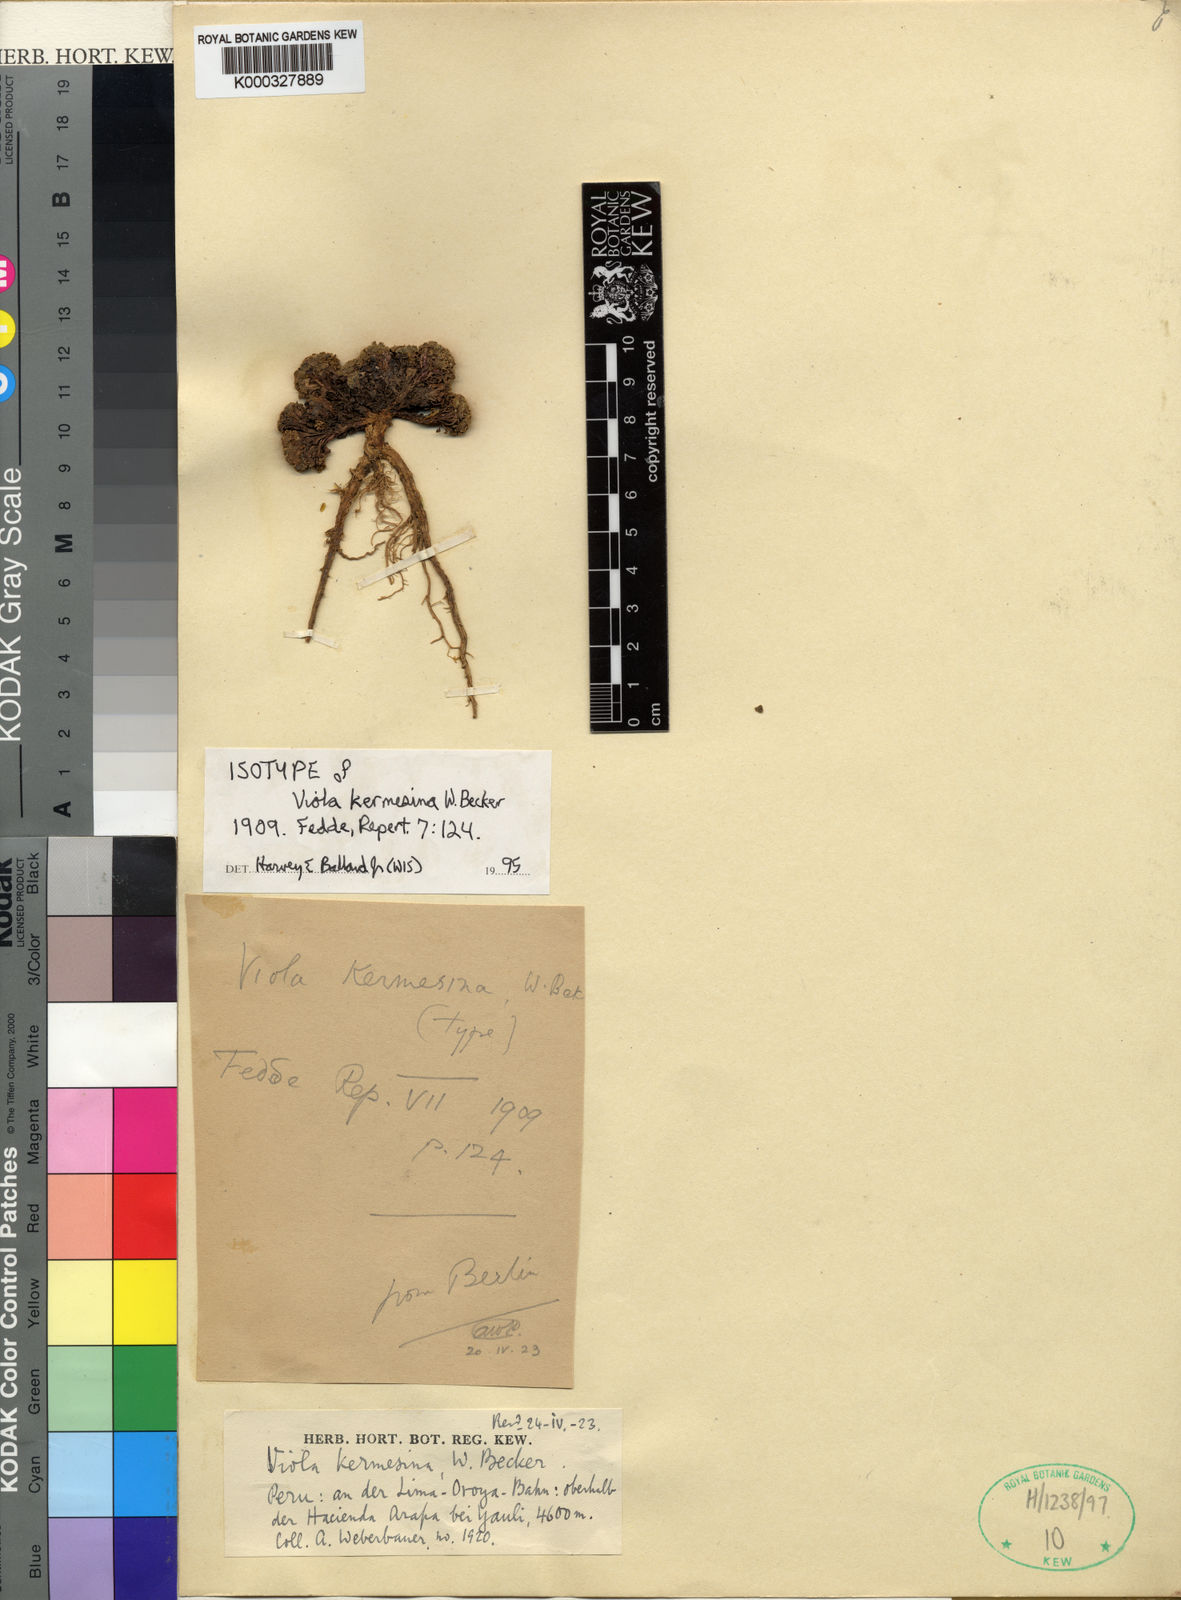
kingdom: Plantae
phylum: Tracheophyta
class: Magnoliopsida
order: Malpighiales
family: Violaceae
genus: Viola
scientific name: Viola kermesina
